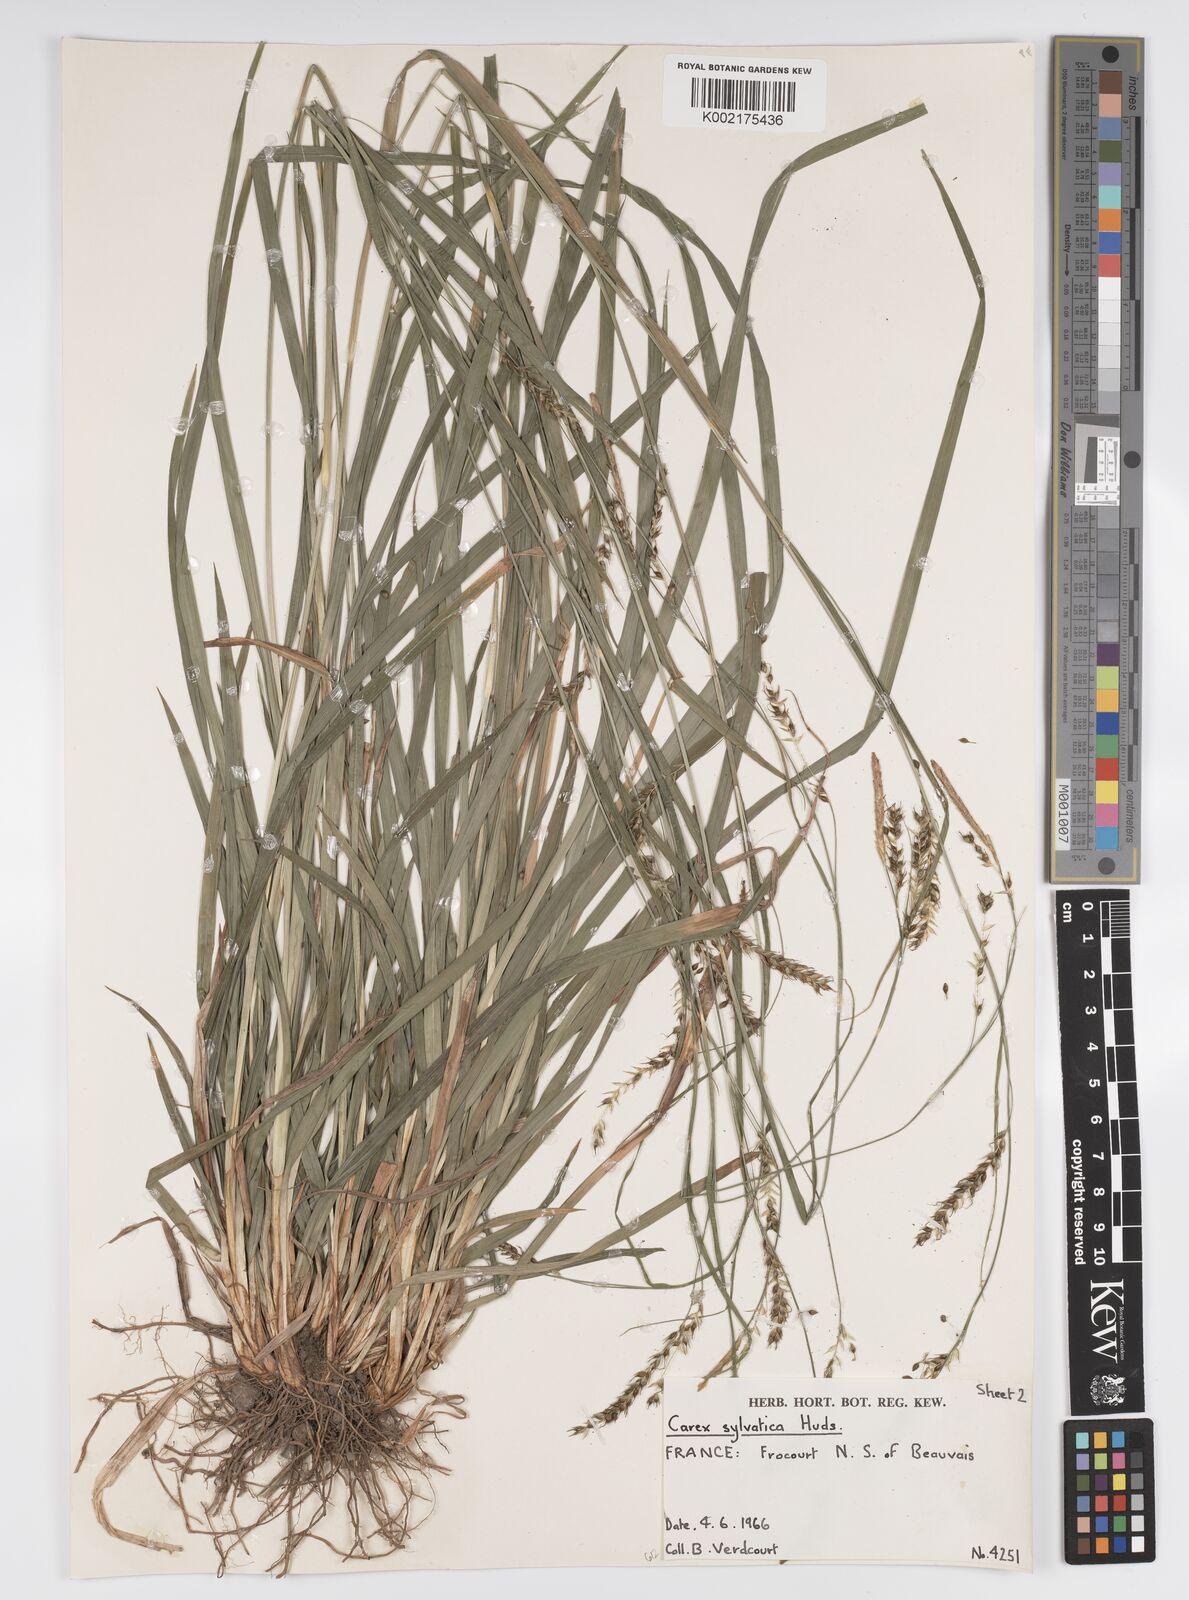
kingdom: Plantae
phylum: Tracheophyta
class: Liliopsida
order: Poales
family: Cyperaceae
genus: Carex
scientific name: Carex sylvatica
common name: Wood-sedge
